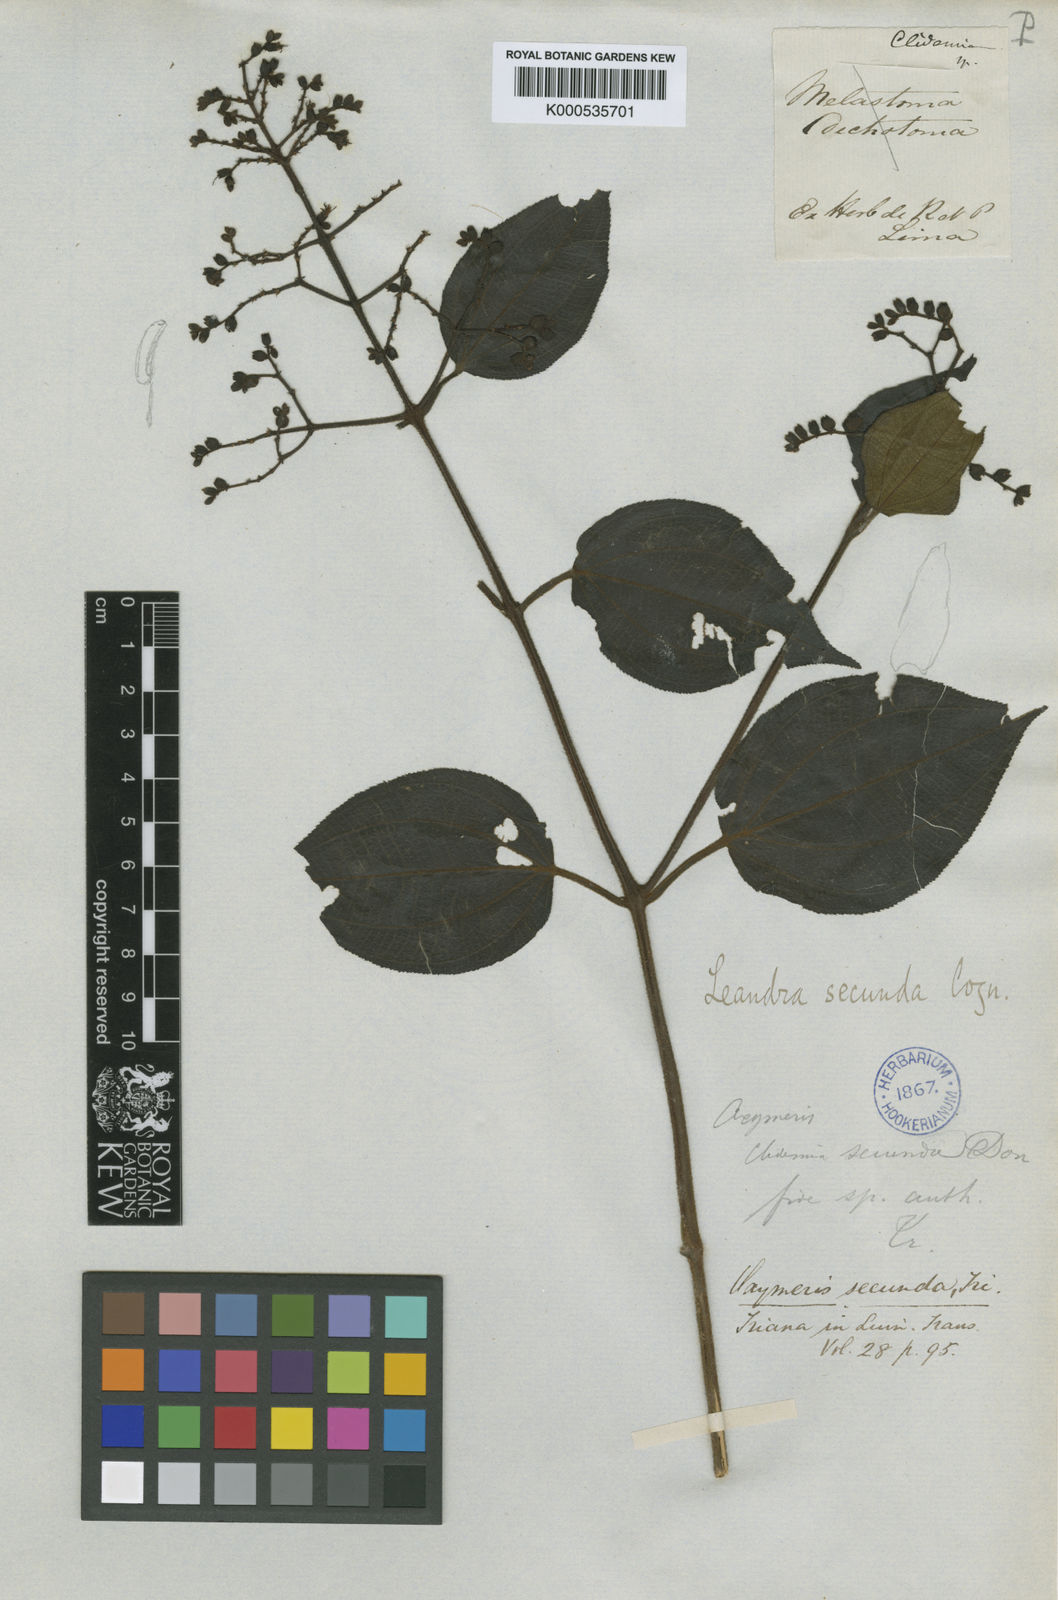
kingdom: Plantae
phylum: Tracheophyta
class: Magnoliopsida
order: Myrtales
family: Melastomataceae
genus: Miconia
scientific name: Miconia neosecunda
